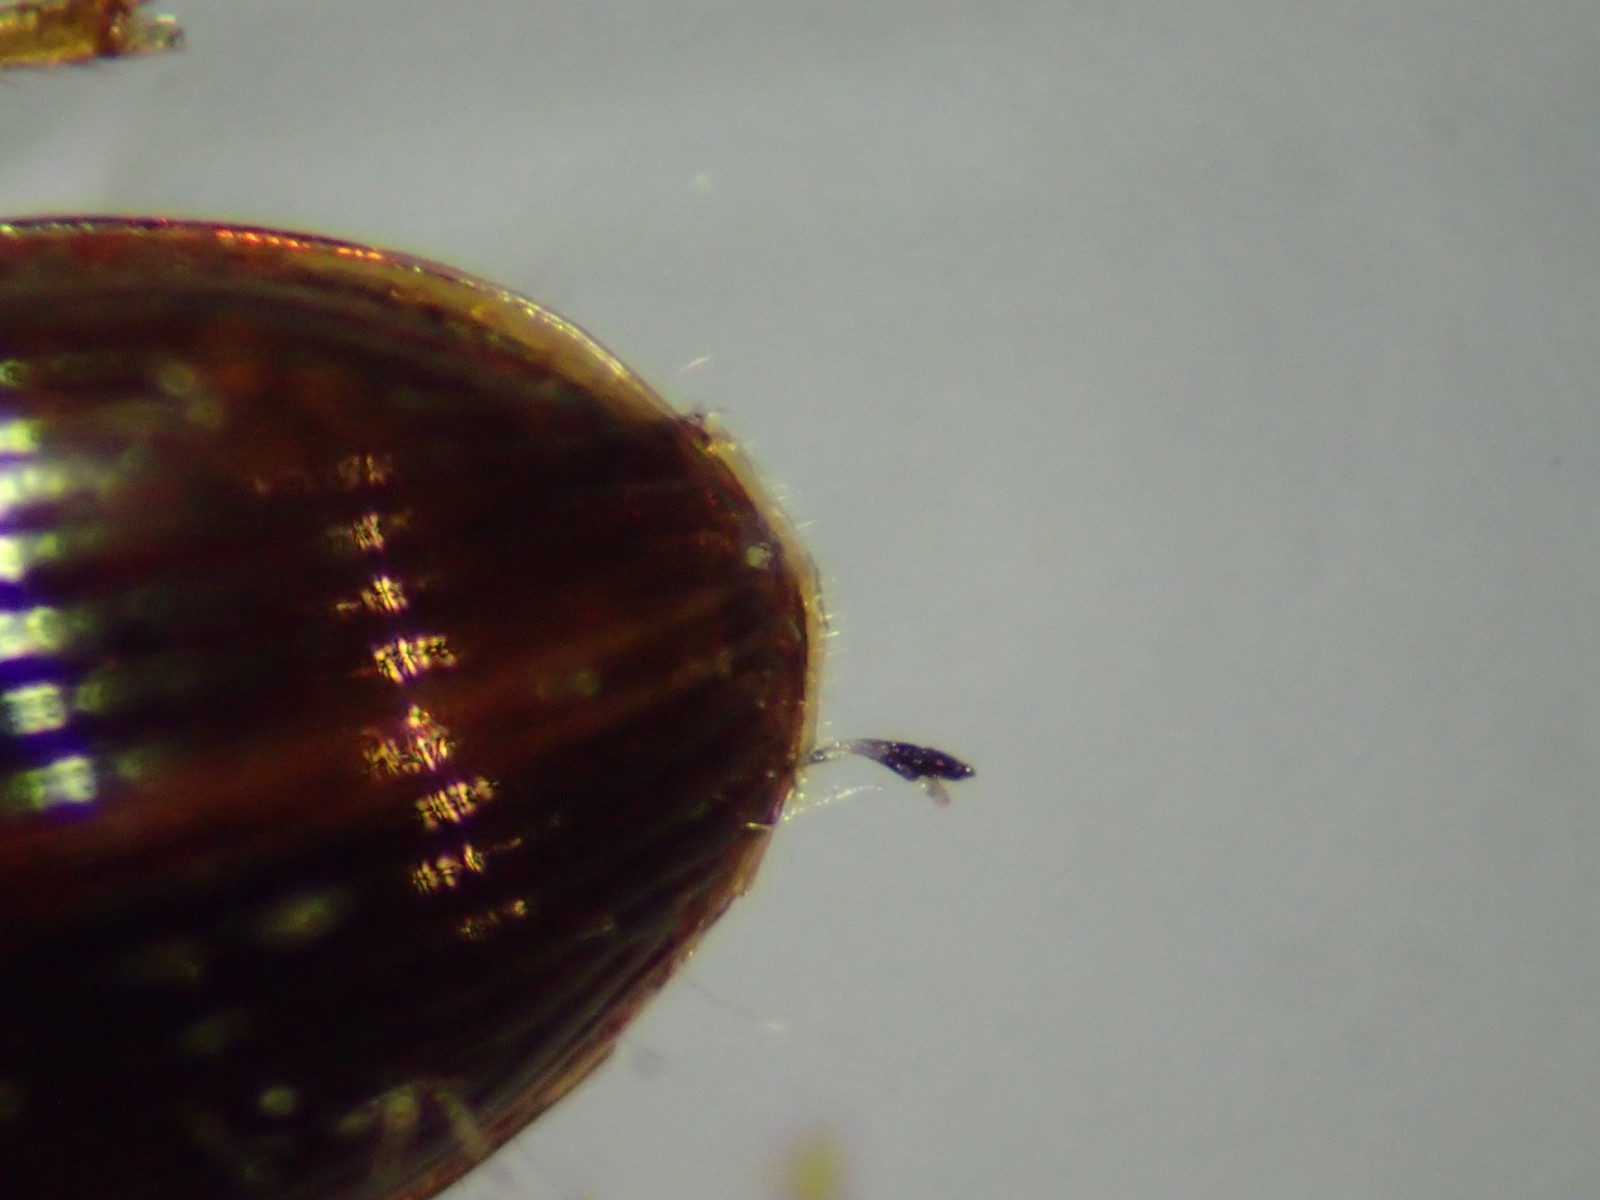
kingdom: Fungi
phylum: Ascomycota
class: Laboulbeniomycetes
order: Laboulbeniales
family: Laboulbeniaceae
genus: Laboulbenia
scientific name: Laboulbenia eubradycelli
